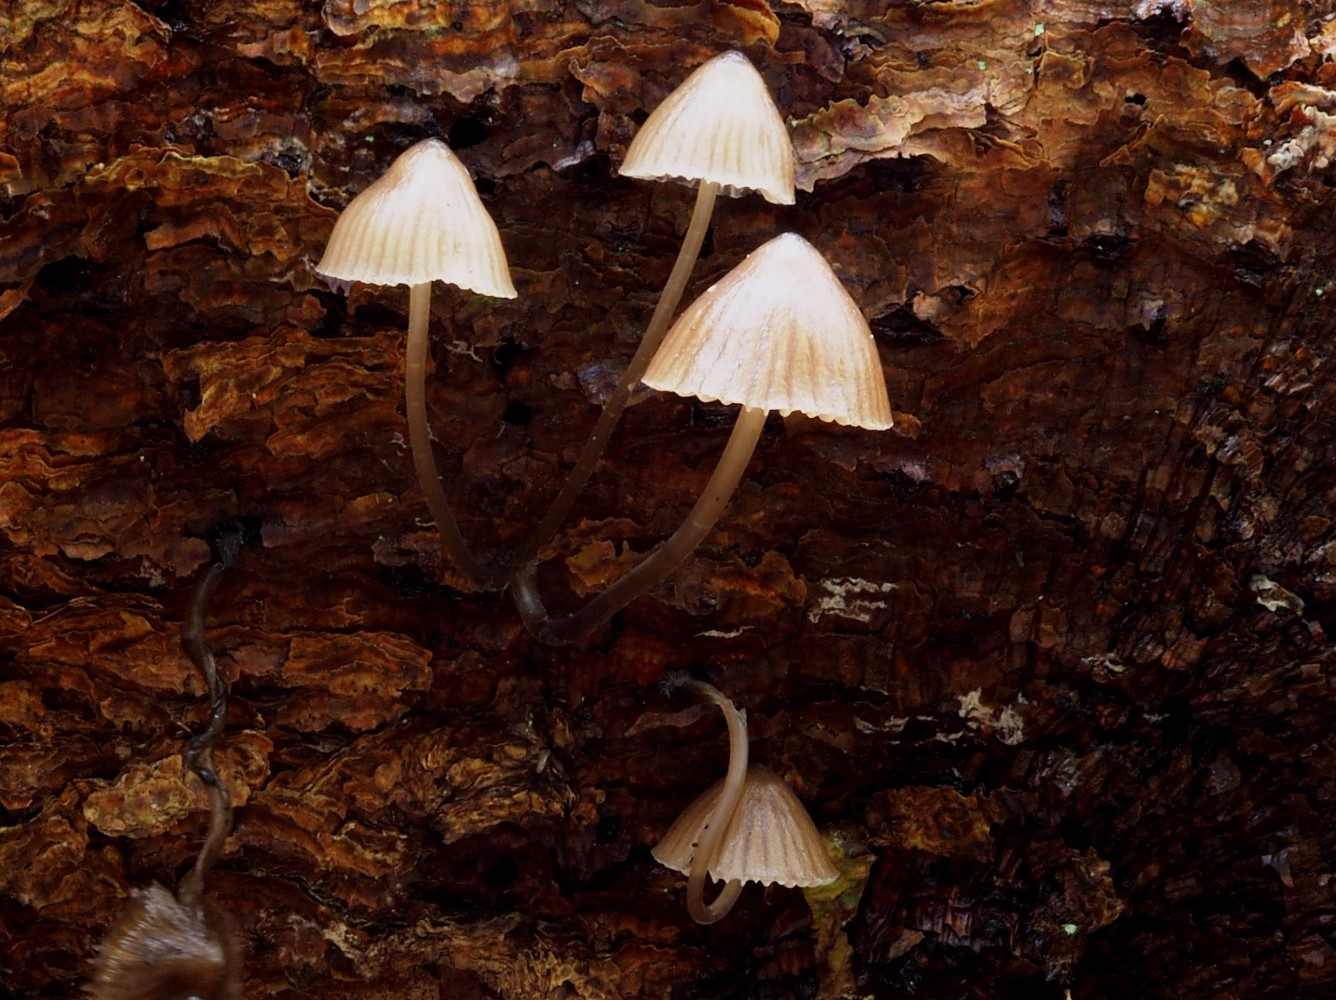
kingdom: Fungi
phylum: Basidiomycota
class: Agaricomycetes
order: Agaricales
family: Mycenaceae
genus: Mycena
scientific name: Mycena stipata
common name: stinkende huesvamp
